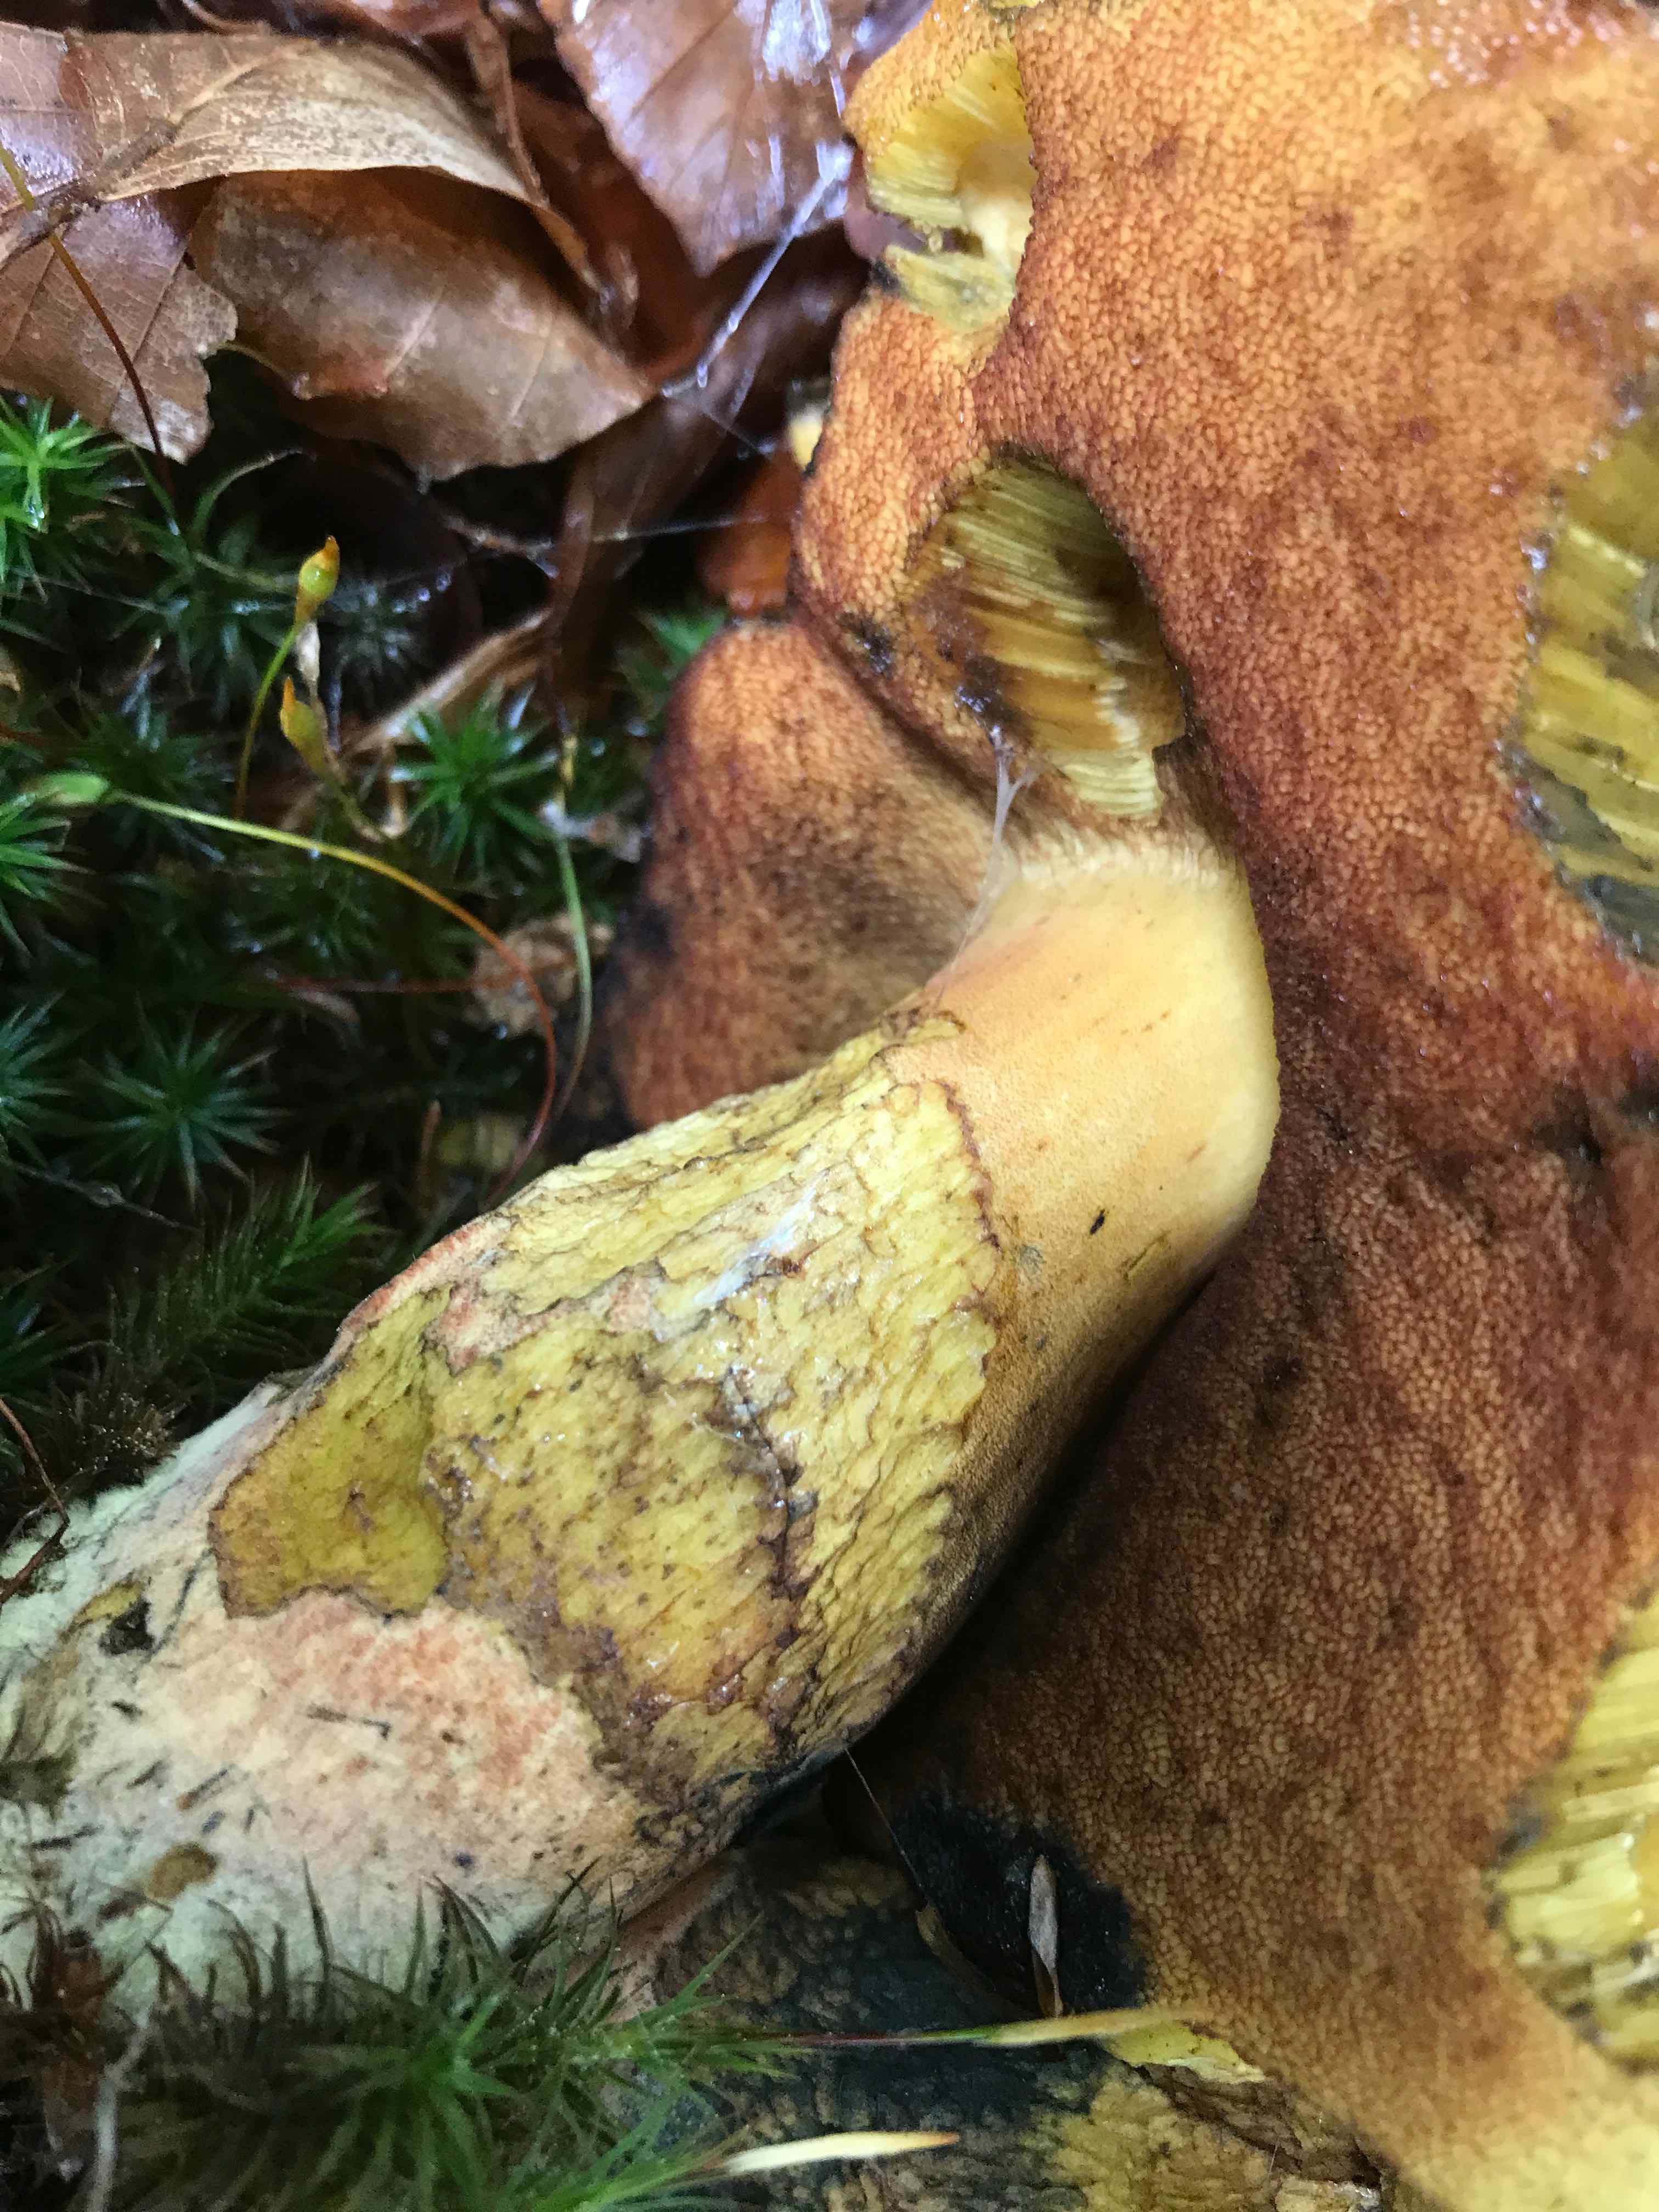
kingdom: Fungi
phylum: Basidiomycota
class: Agaricomycetes
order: Boletales
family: Boletaceae
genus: Neoboletus
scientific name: Neoboletus praestigiator
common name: gul indigorørhat
